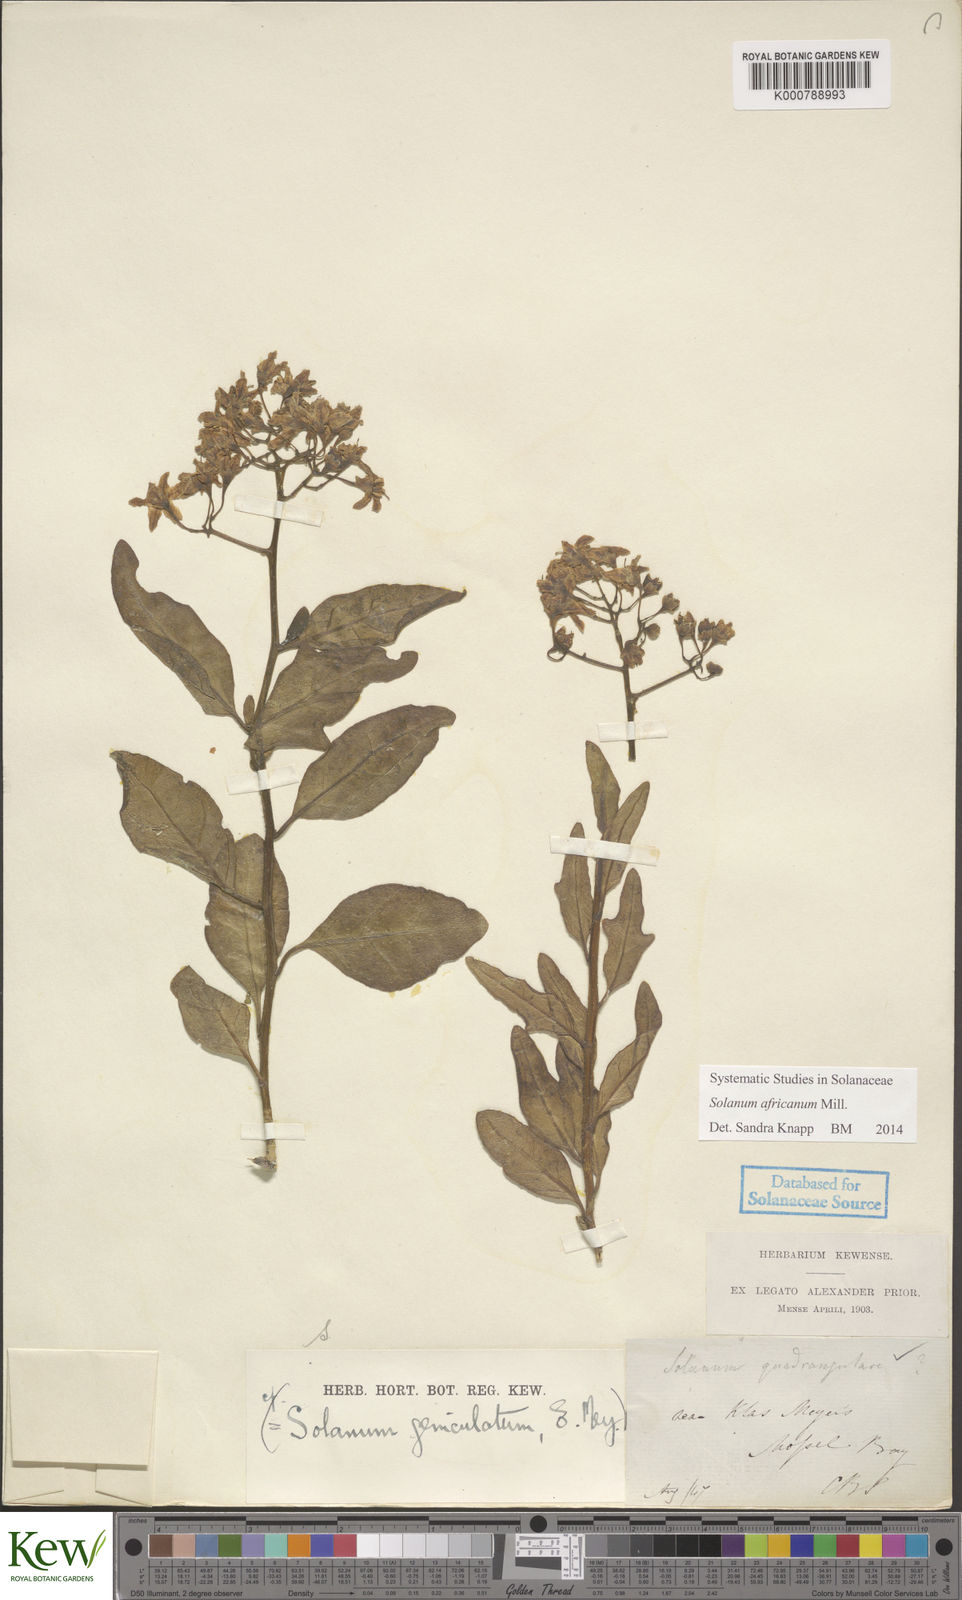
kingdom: Plantae
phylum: Tracheophyta
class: Magnoliopsida
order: Solanales
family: Solanaceae
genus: Solanum
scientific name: Solanum africanum
